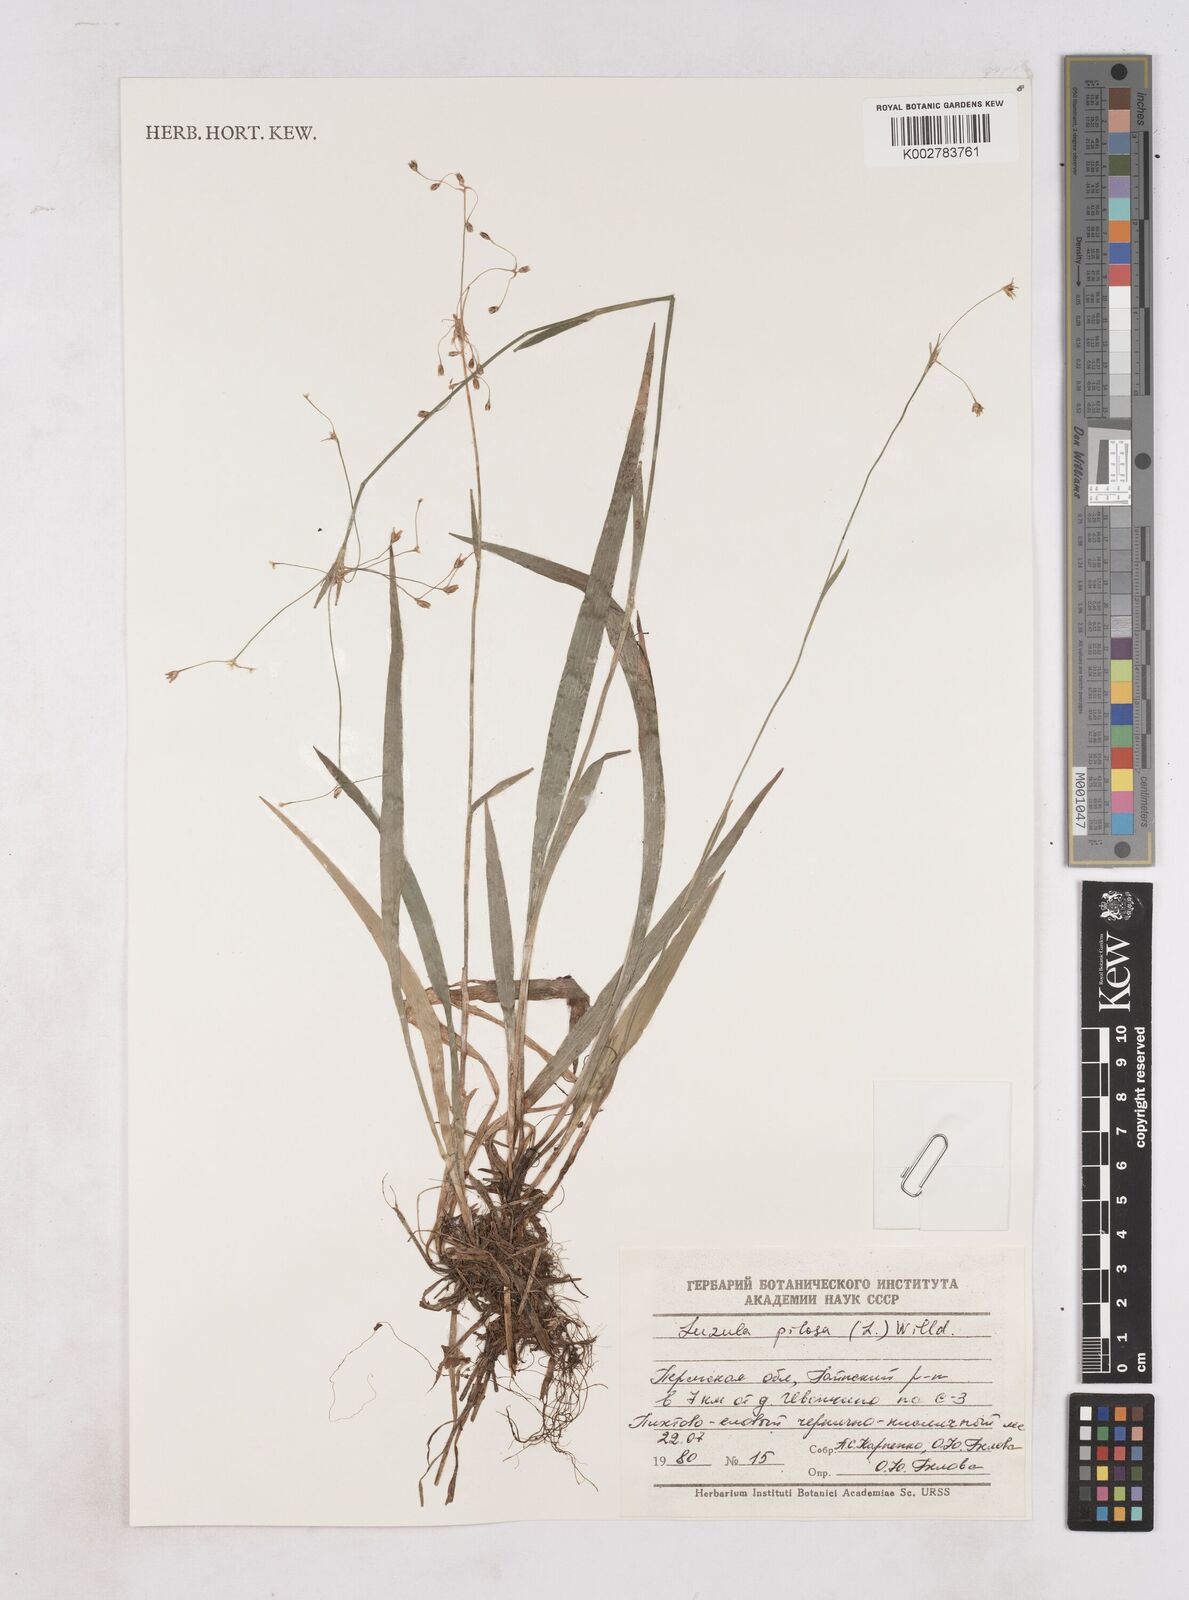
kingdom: Plantae
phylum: Tracheophyta
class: Liliopsida
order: Poales
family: Juncaceae
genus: Luzula
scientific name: Luzula pilosa
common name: Hairy wood-rush
